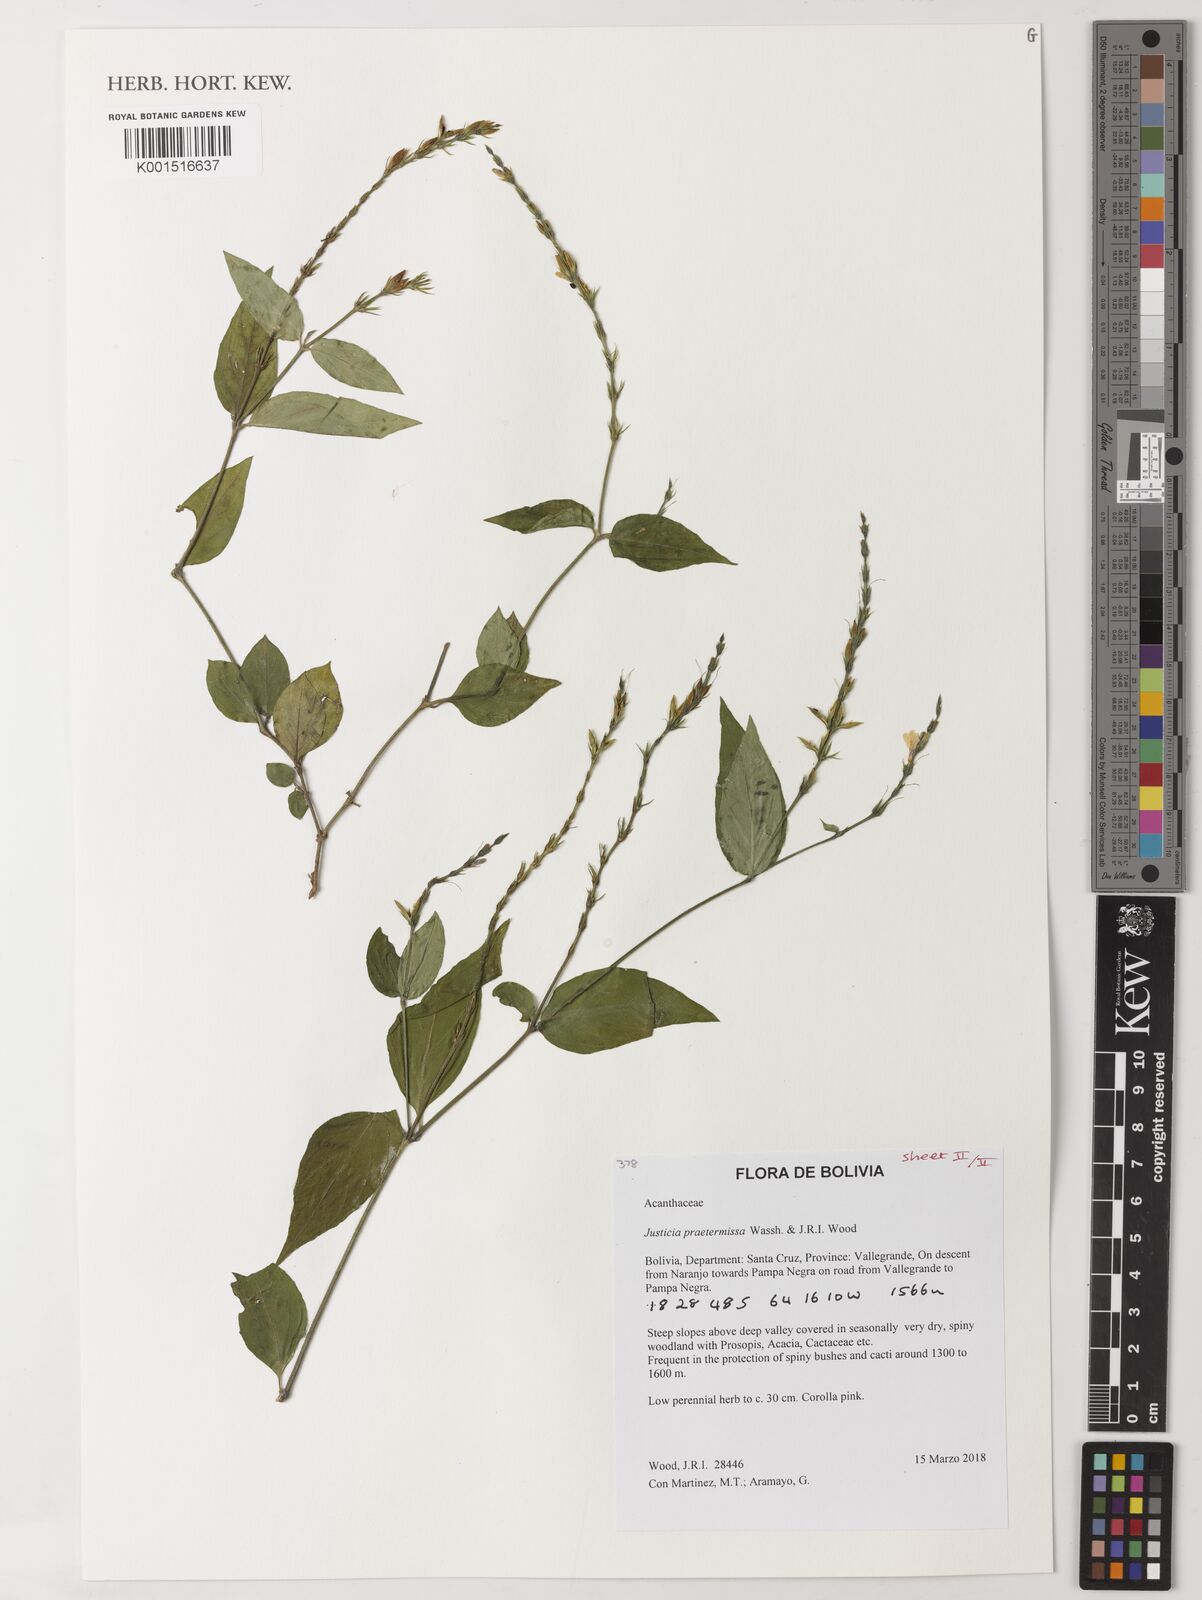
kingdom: Plantae
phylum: Tracheophyta
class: Magnoliopsida
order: Lamiales
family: Acanthaceae
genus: Justicia
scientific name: Justicia cuspidulata
